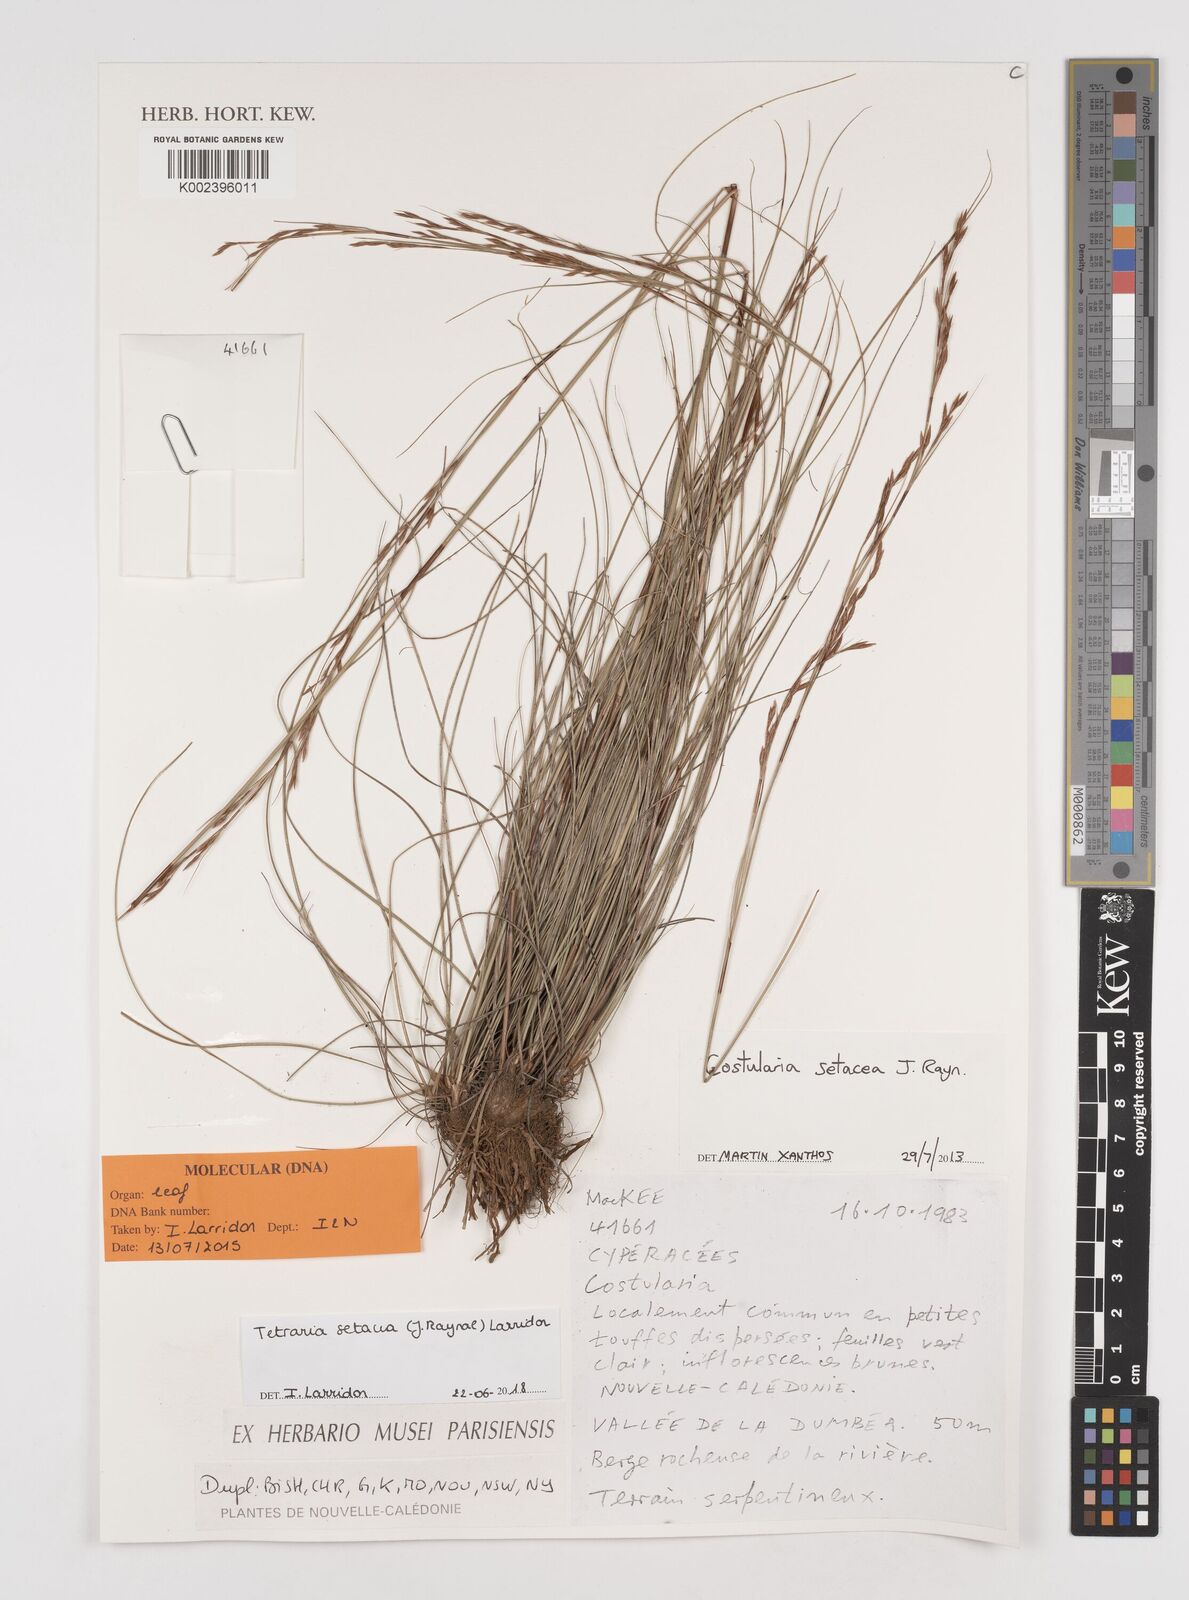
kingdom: Plantae
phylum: Tracheophyta
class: Liliopsida
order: Poales
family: Cyperaceae
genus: Tetraria
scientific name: Tetraria setacea
